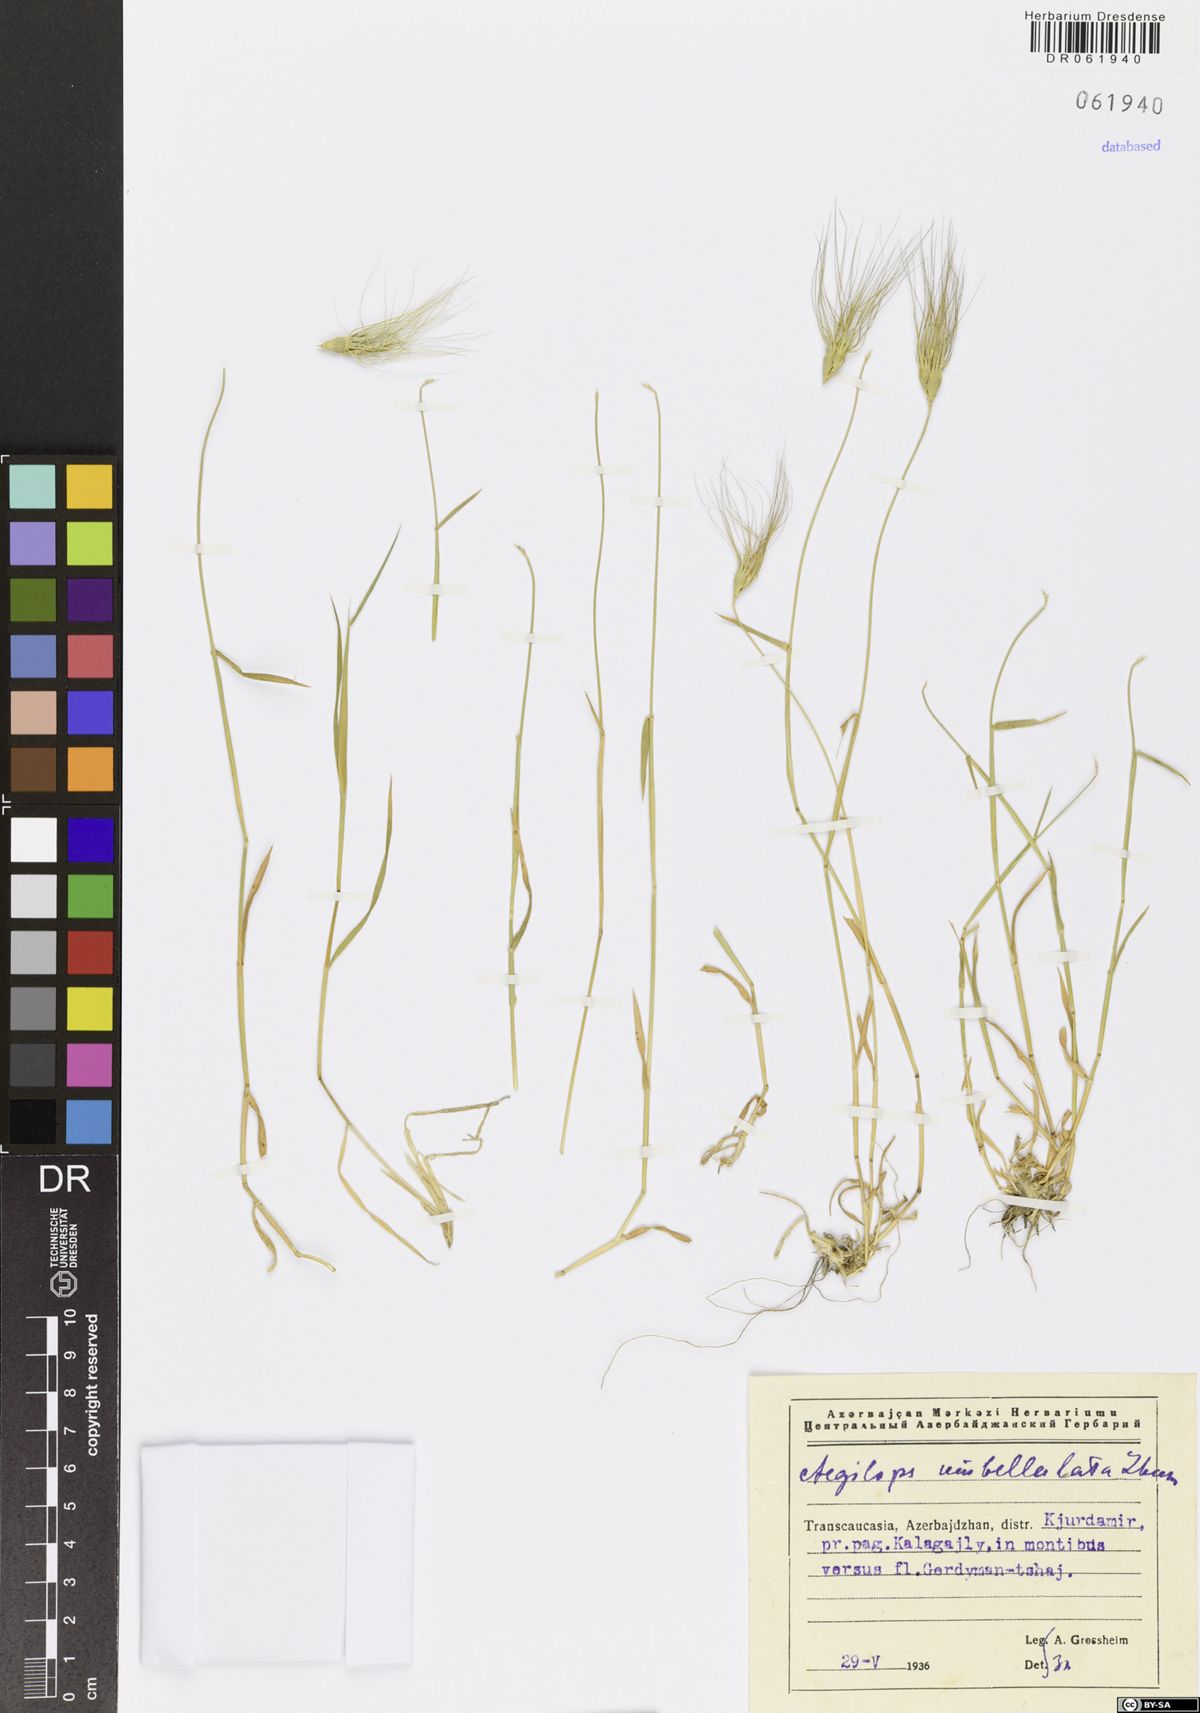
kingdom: Plantae
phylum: Tracheophyta
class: Liliopsida
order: Poales
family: Poaceae
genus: Aegilops
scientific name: Aegilops umbellulata
